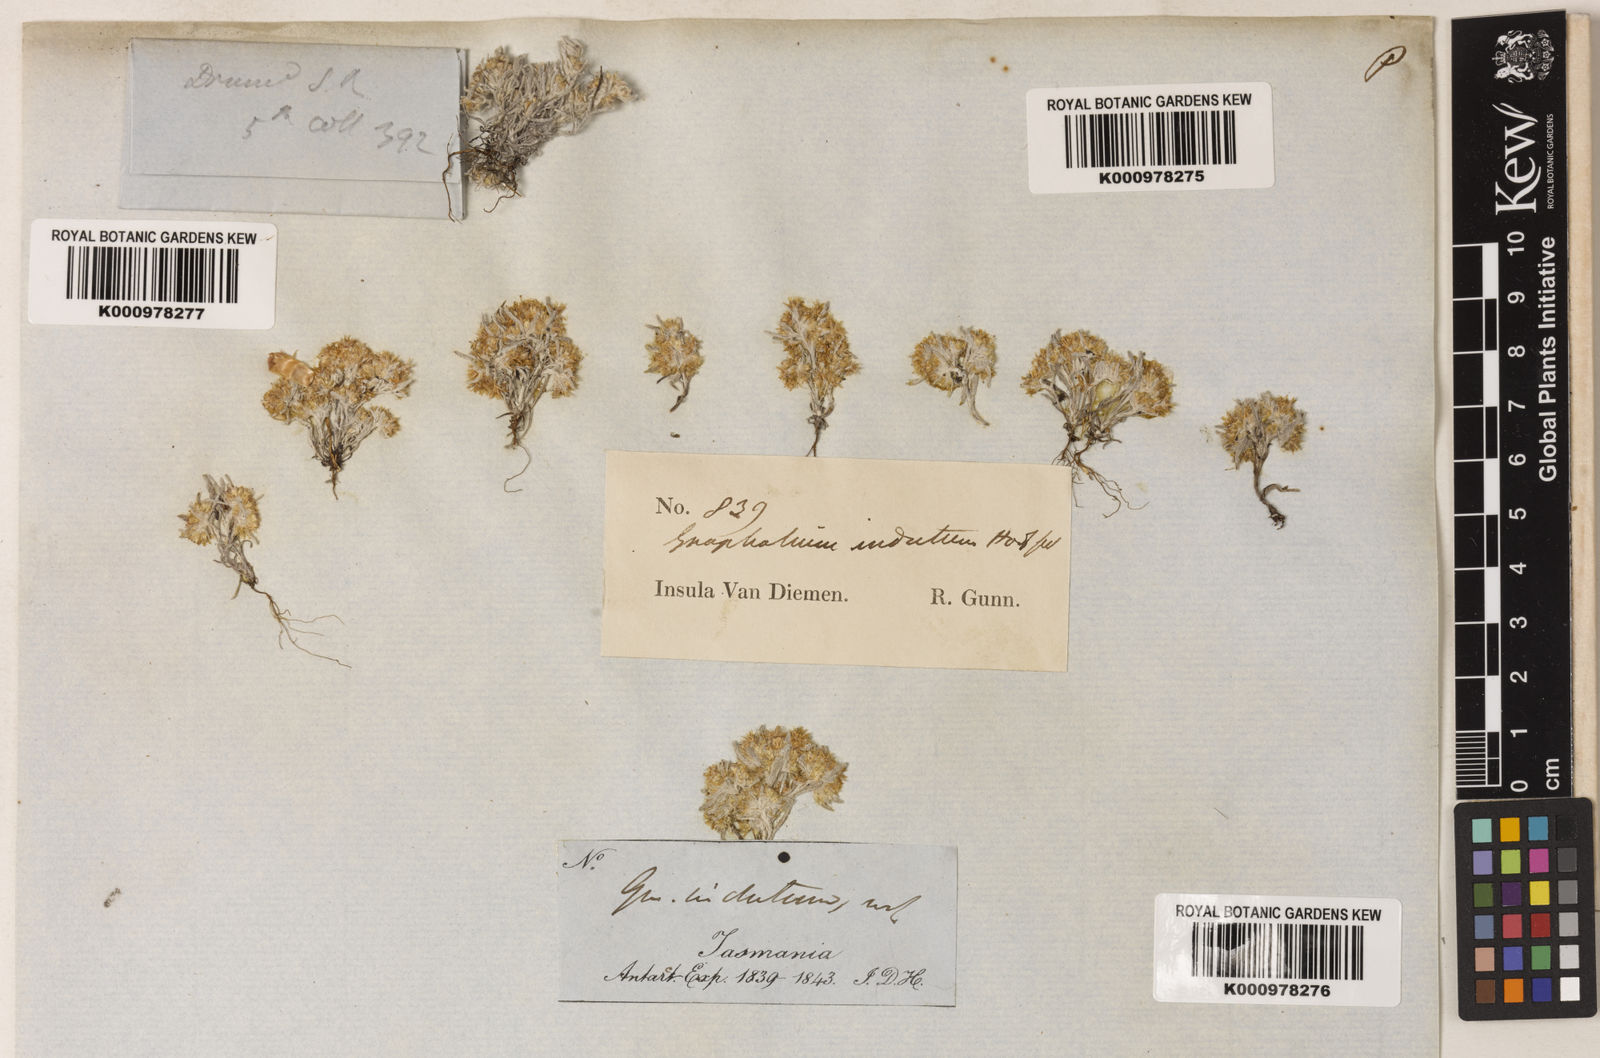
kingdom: Plantae
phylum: Tracheophyta
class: Magnoliopsida
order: Asterales
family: Asteraceae
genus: Gnaphalium
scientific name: Gnaphalium indutum
